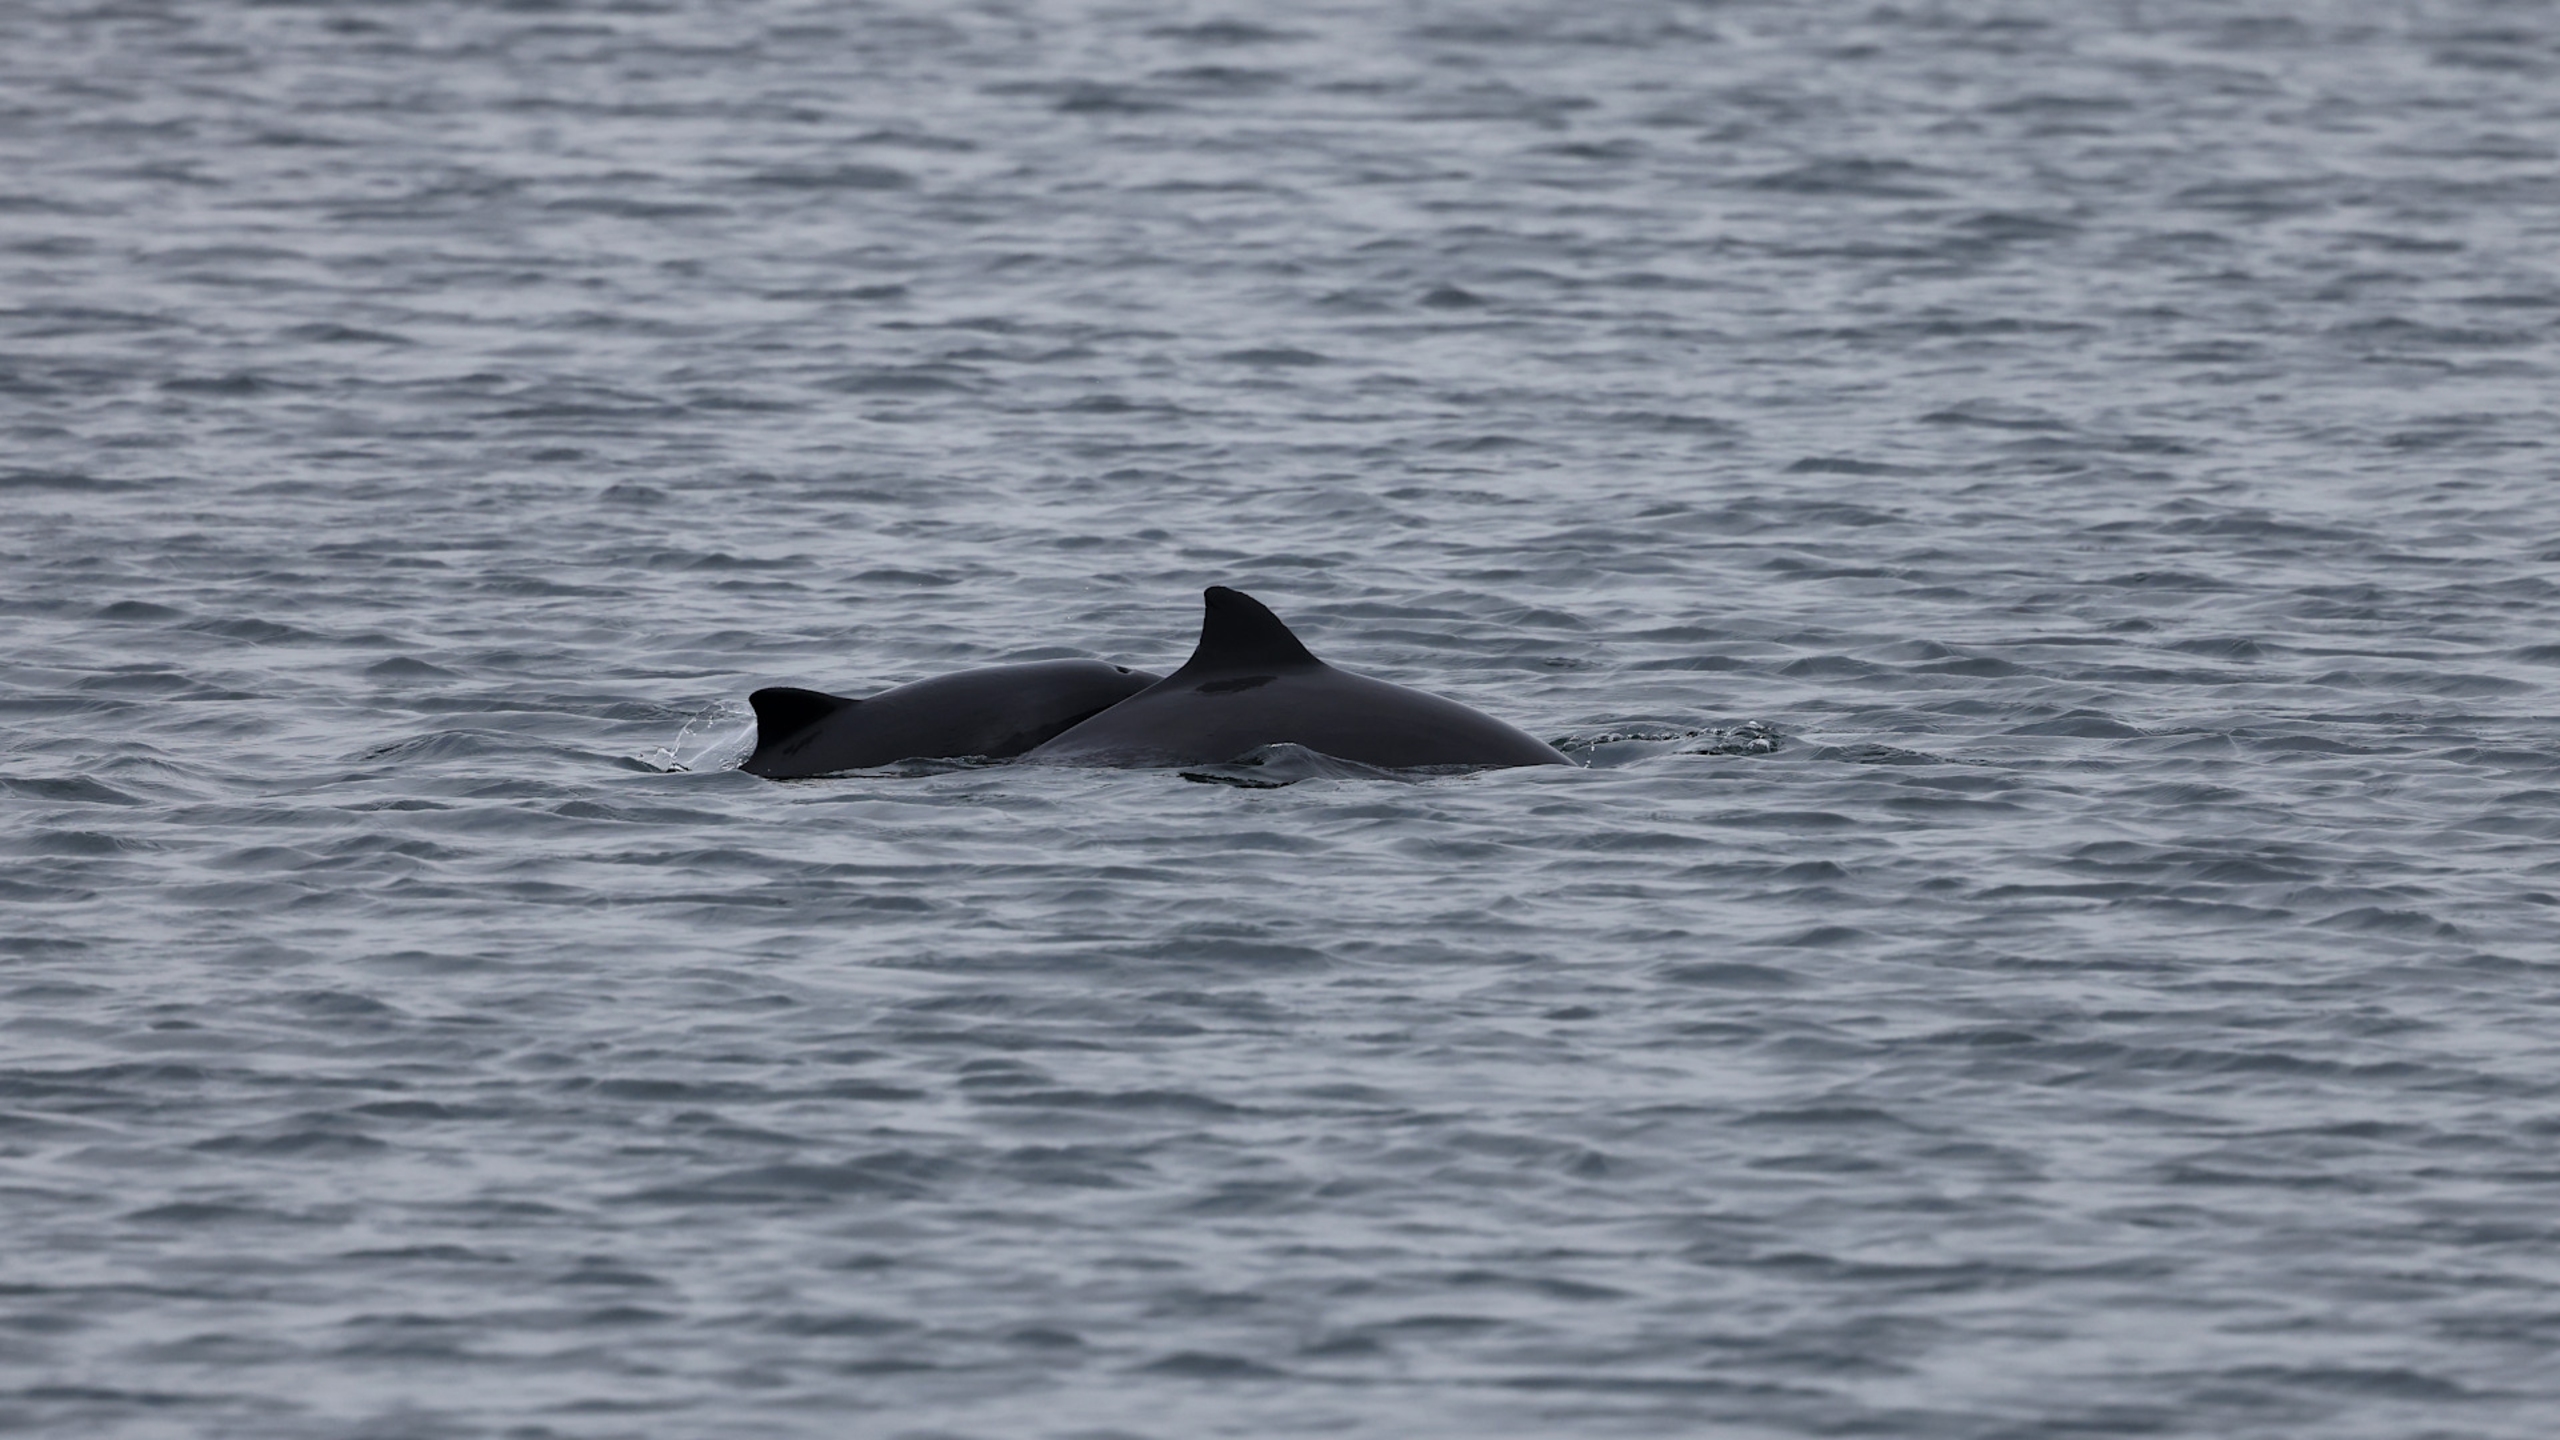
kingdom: Animalia
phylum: Chordata
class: Mammalia
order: Cetacea
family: Phocoenidae
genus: Phocoena
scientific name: Phocoena phocoena
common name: Marsvin
